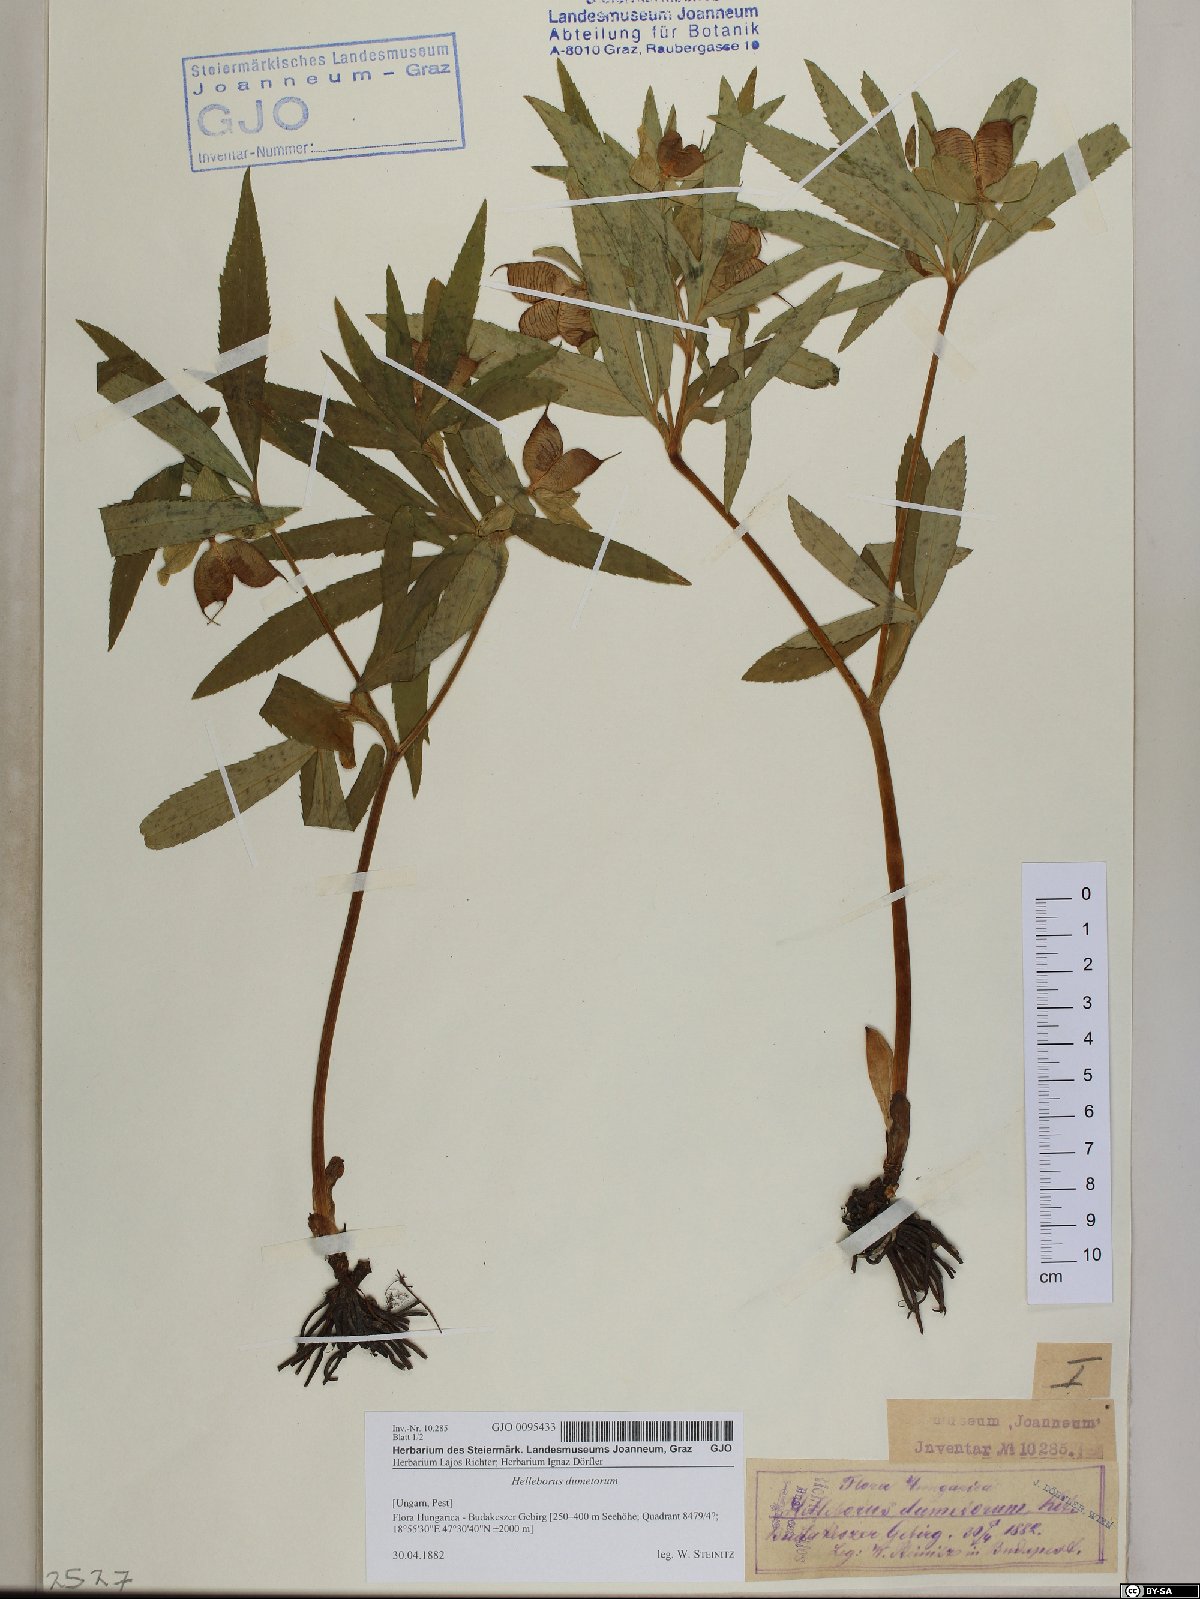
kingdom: Plantae
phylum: Tracheophyta
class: Magnoliopsida
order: Ranunculales
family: Ranunculaceae
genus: Helleborus
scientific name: Helleborus dumetorum
